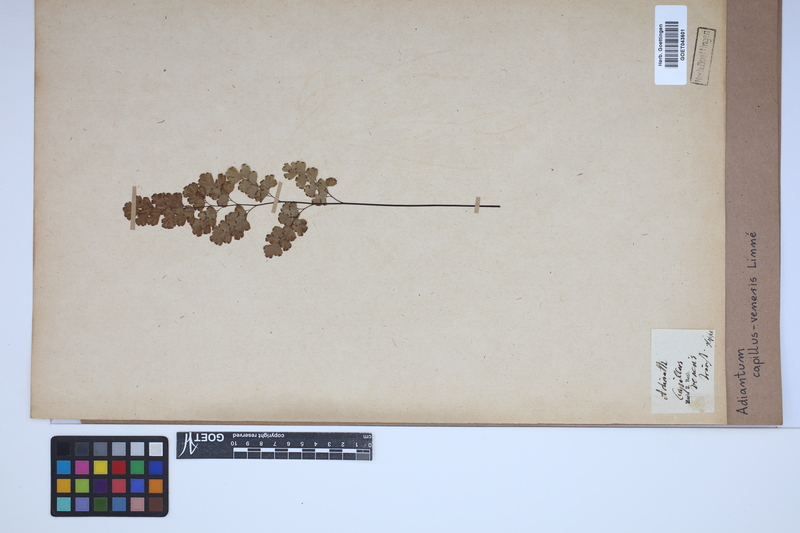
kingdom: Plantae
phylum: Tracheophyta
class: Polypodiopsida
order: Polypodiales
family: Pteridaceae
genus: Adiantum
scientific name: Adiantum capillus-veneris
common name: Maidenhair fern
